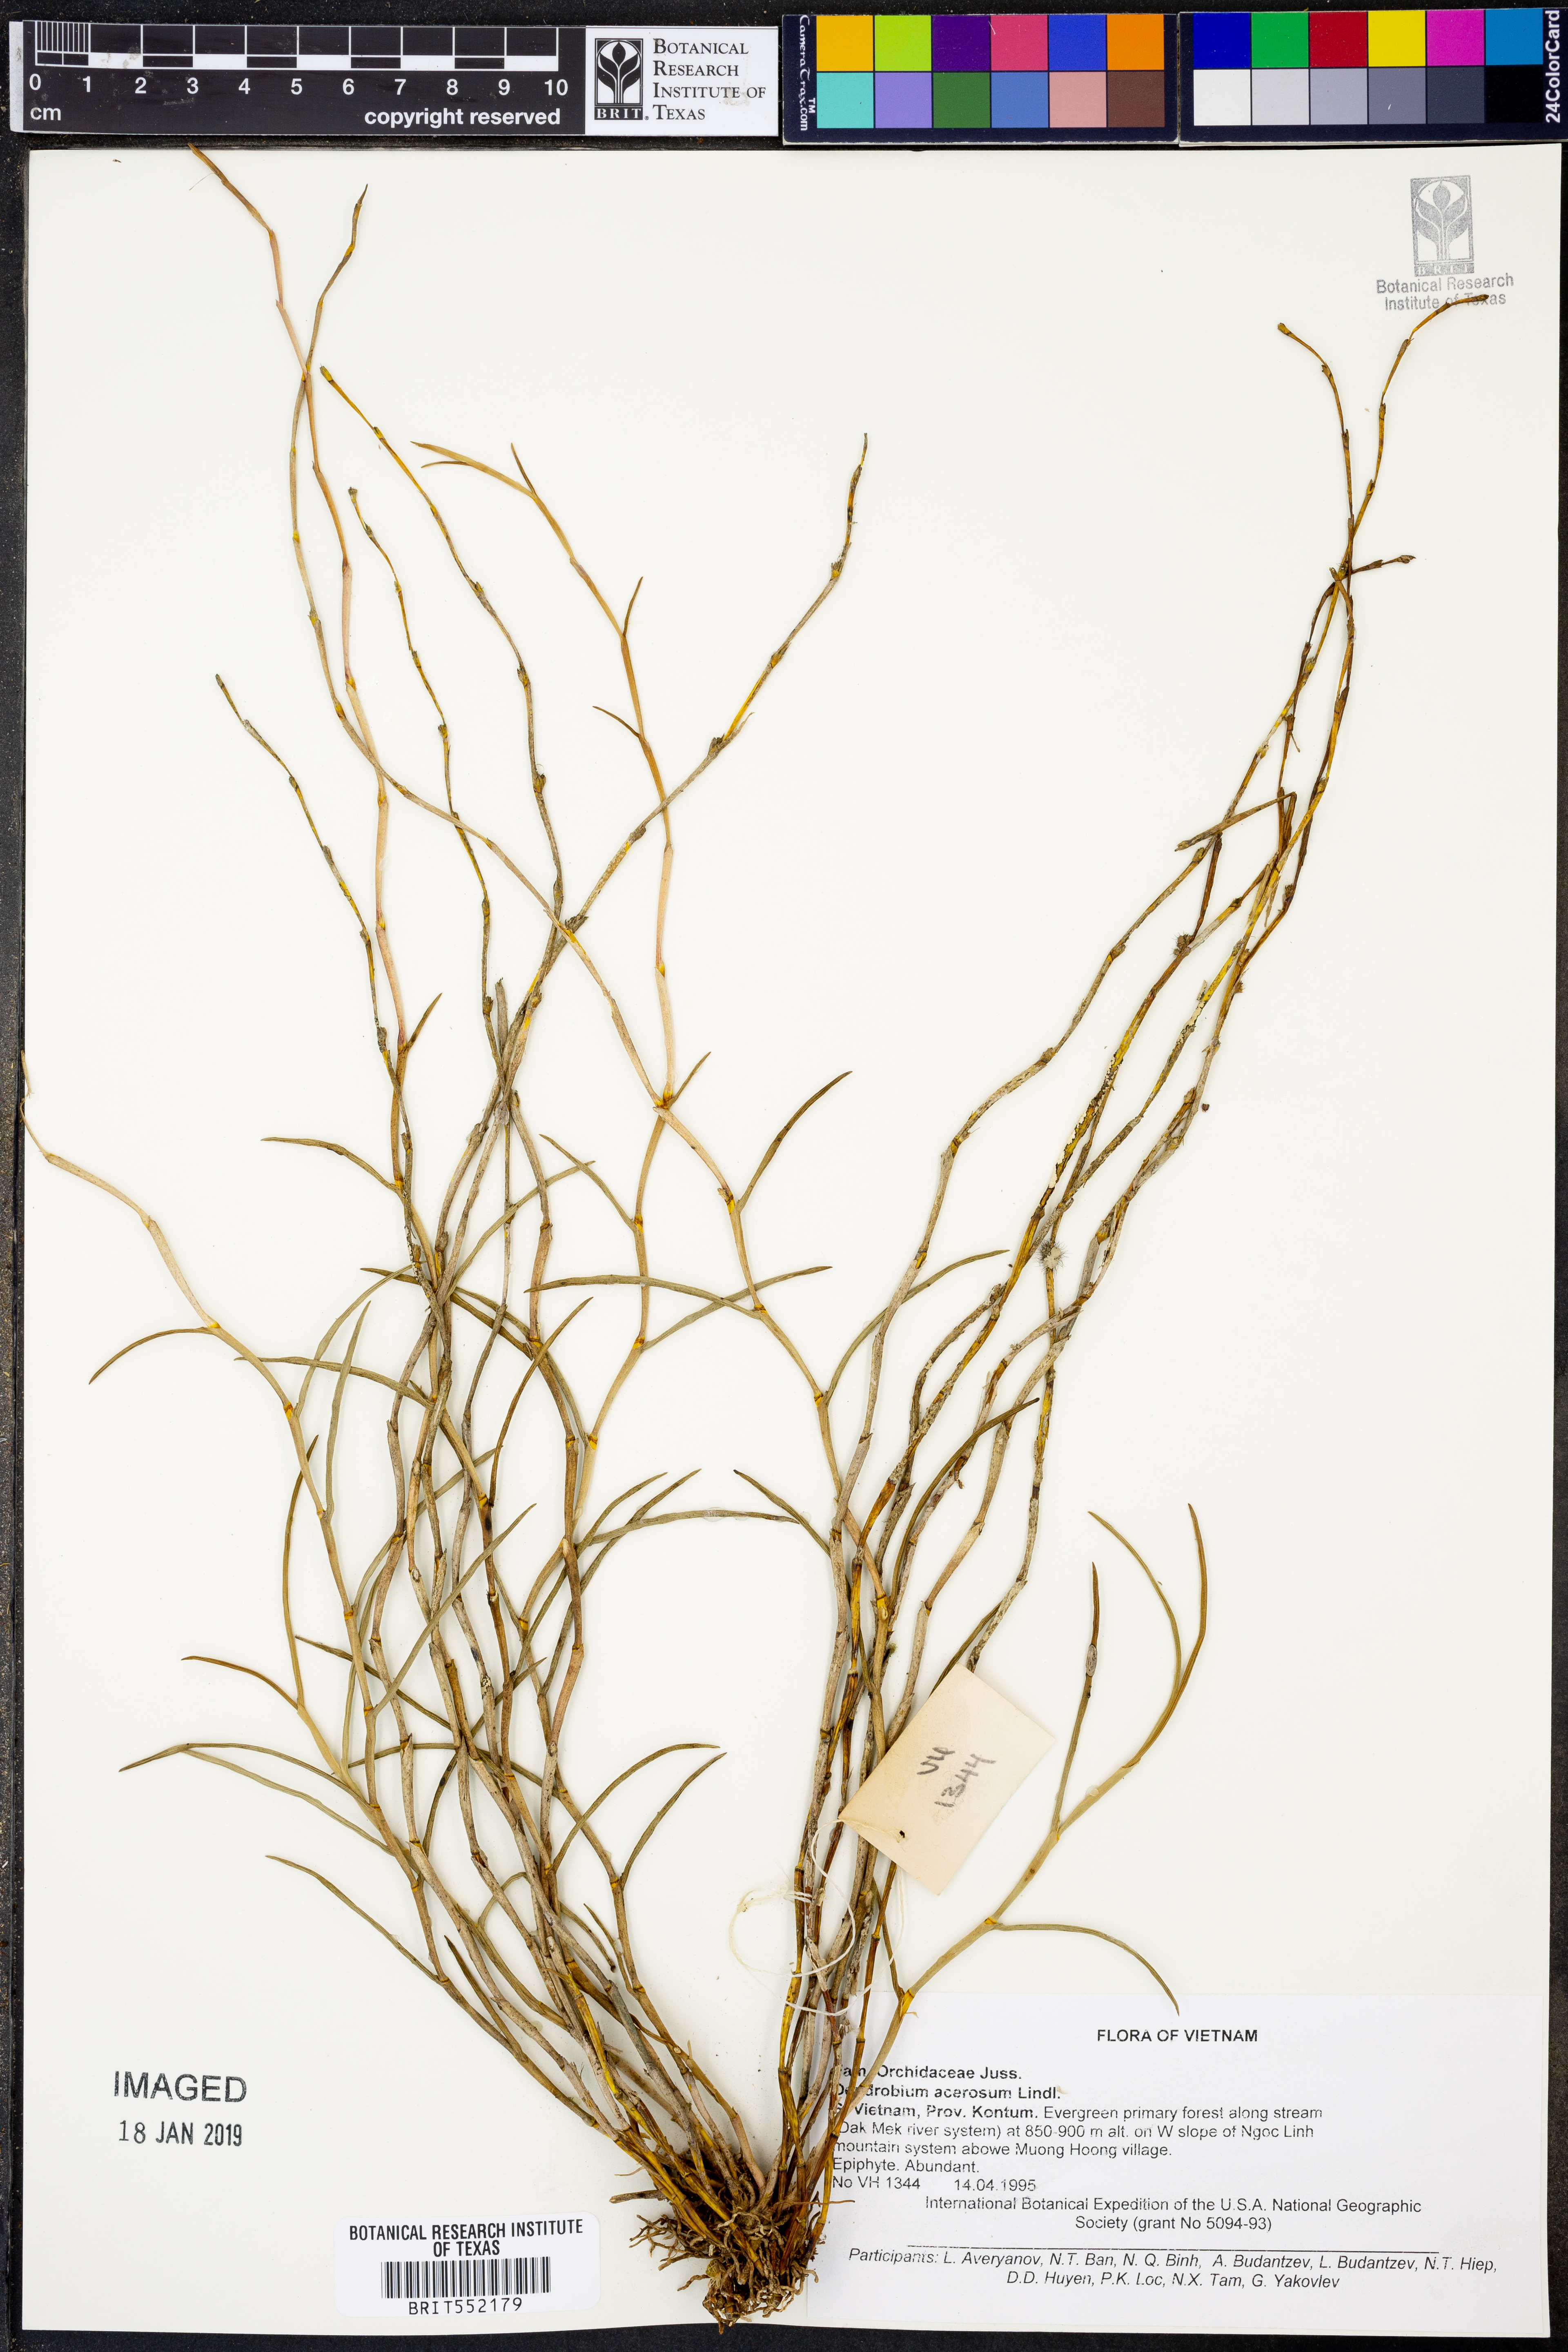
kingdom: Plantae
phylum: Tracheophyta
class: Liliopsida
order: Asparagales
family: Orchidaceae
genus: Dendrobium
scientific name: Dendrobium acerosum
